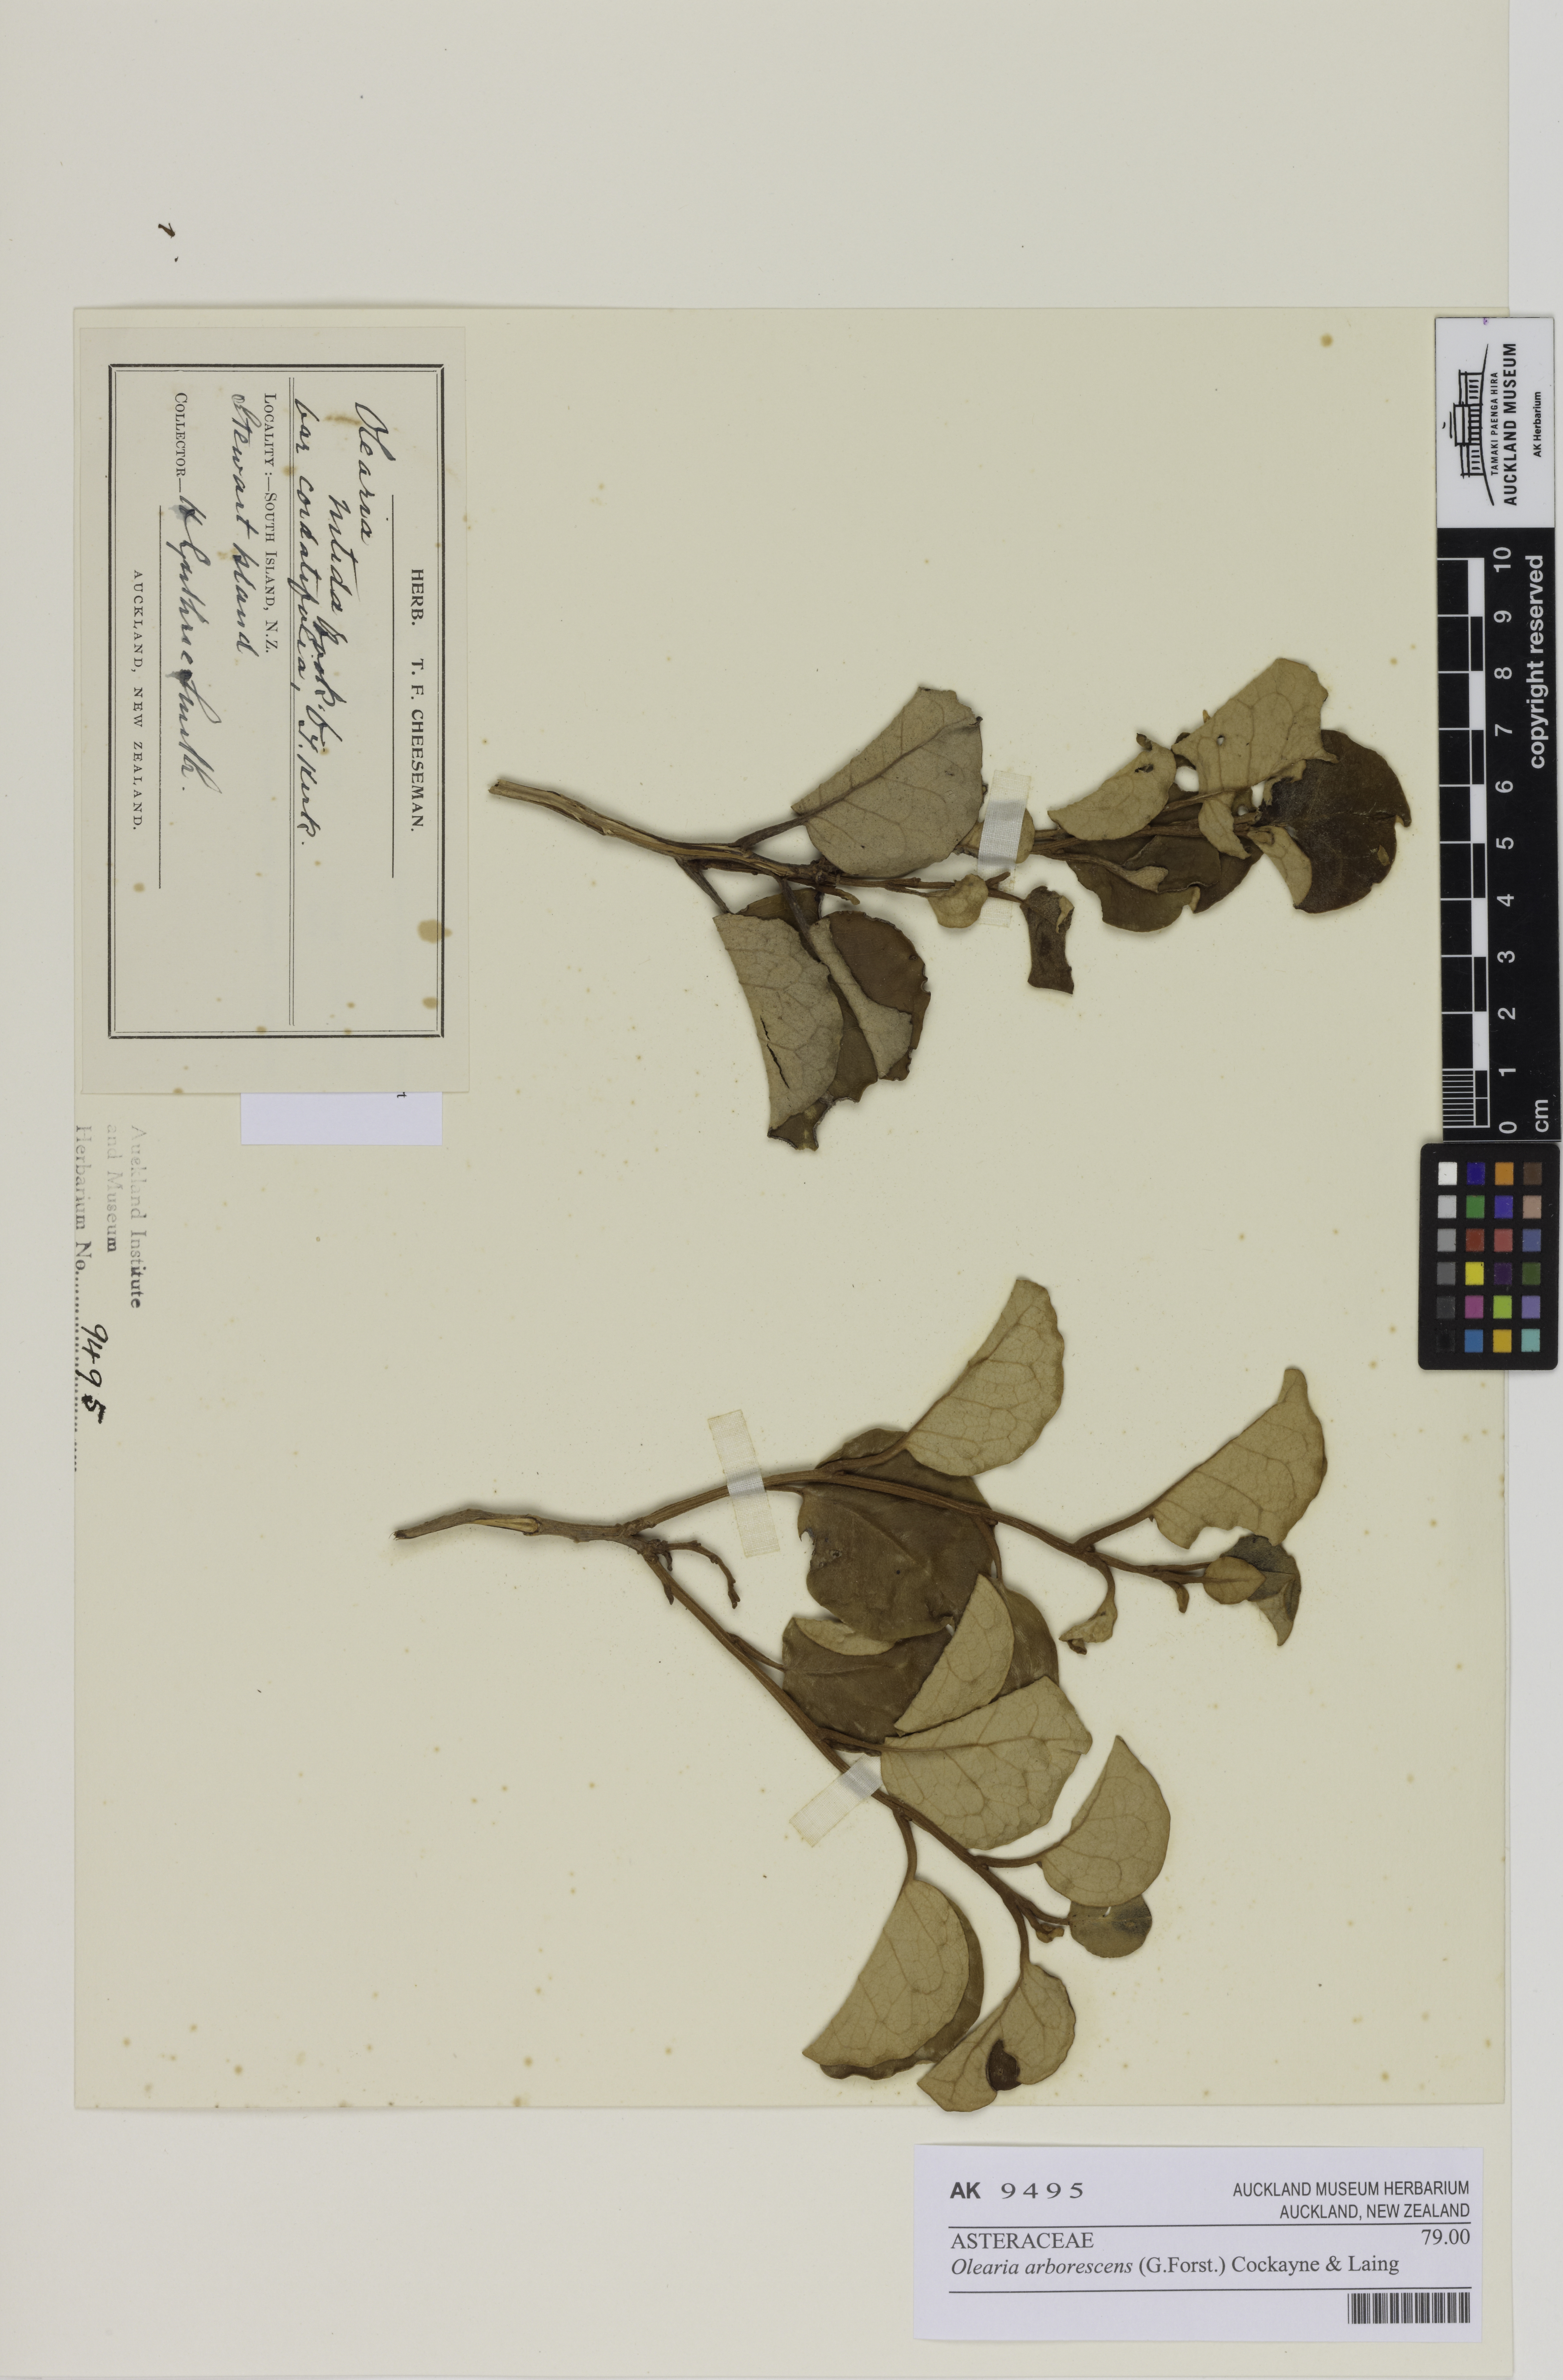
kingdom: Plantae
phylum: Tracheophyta
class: Magnoliopsida
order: Asterales
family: Asteraceae
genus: Olearia
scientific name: Olearia arborescens
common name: Glossy tree daisy
